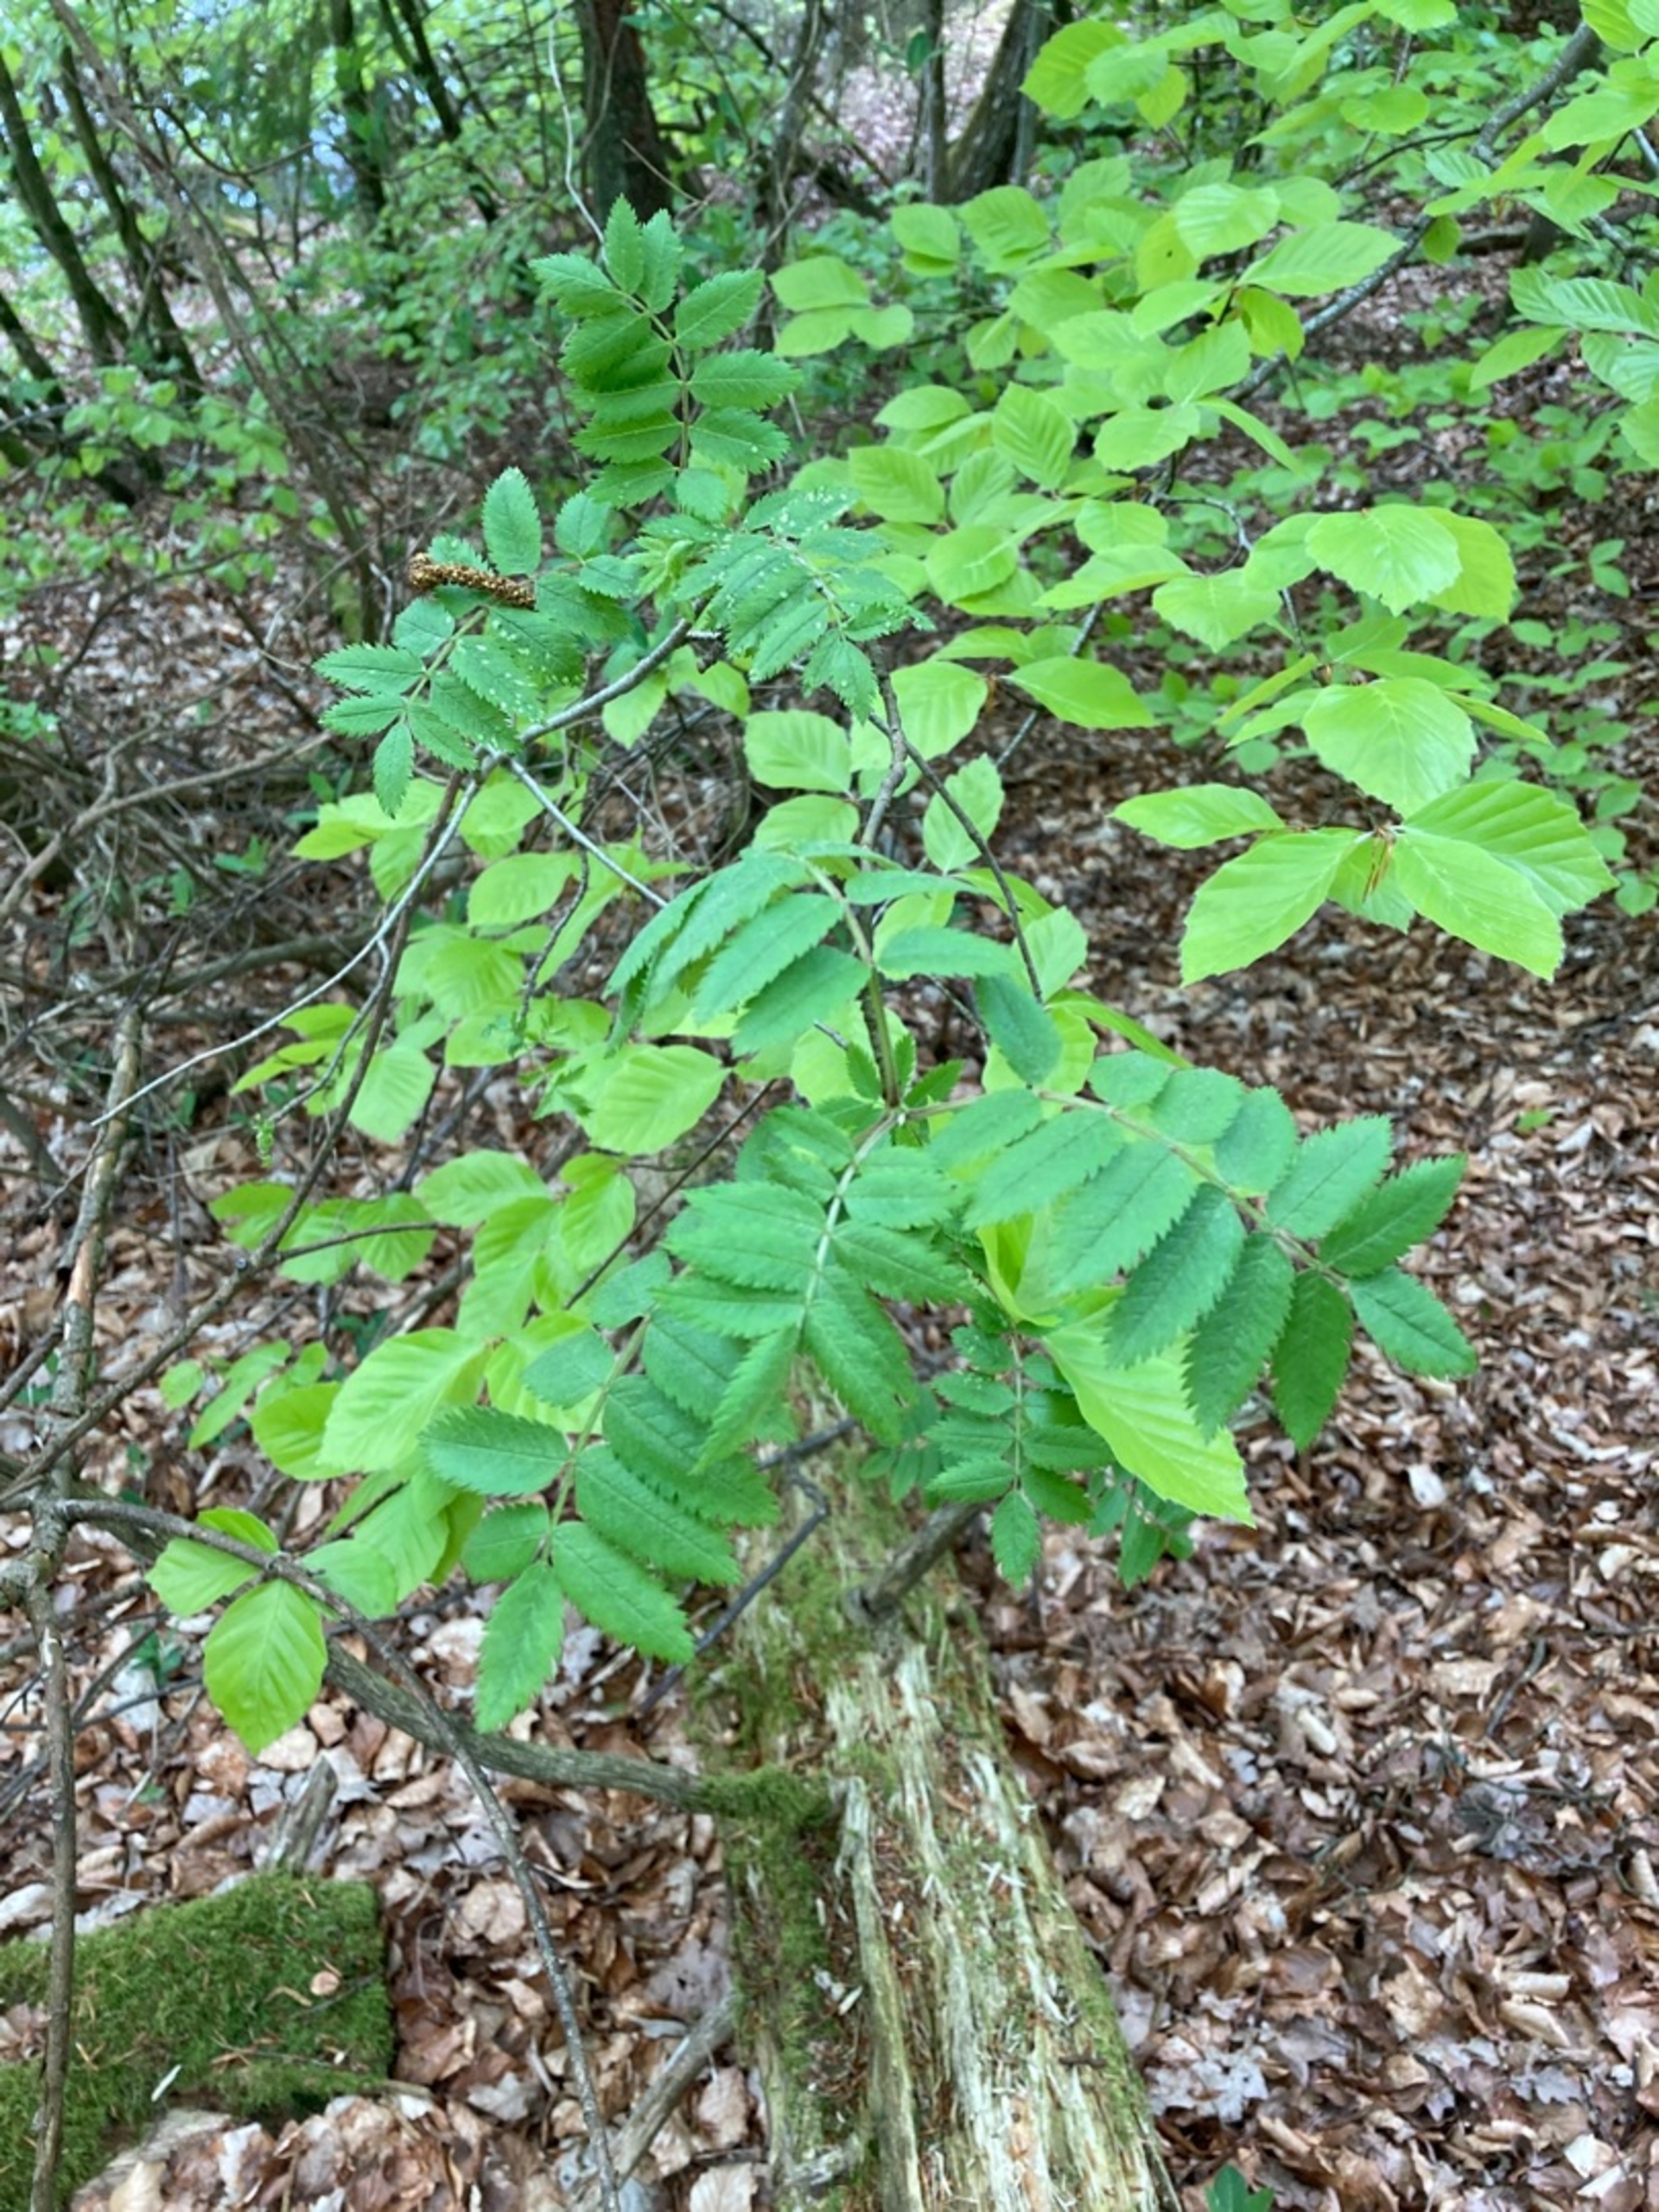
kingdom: Plantae
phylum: Tracheophyta
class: Magnoliopsida
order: Rosales
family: Rosaceae
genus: Sorbus
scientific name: Sorbus aucuparia
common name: Almindelig røn
